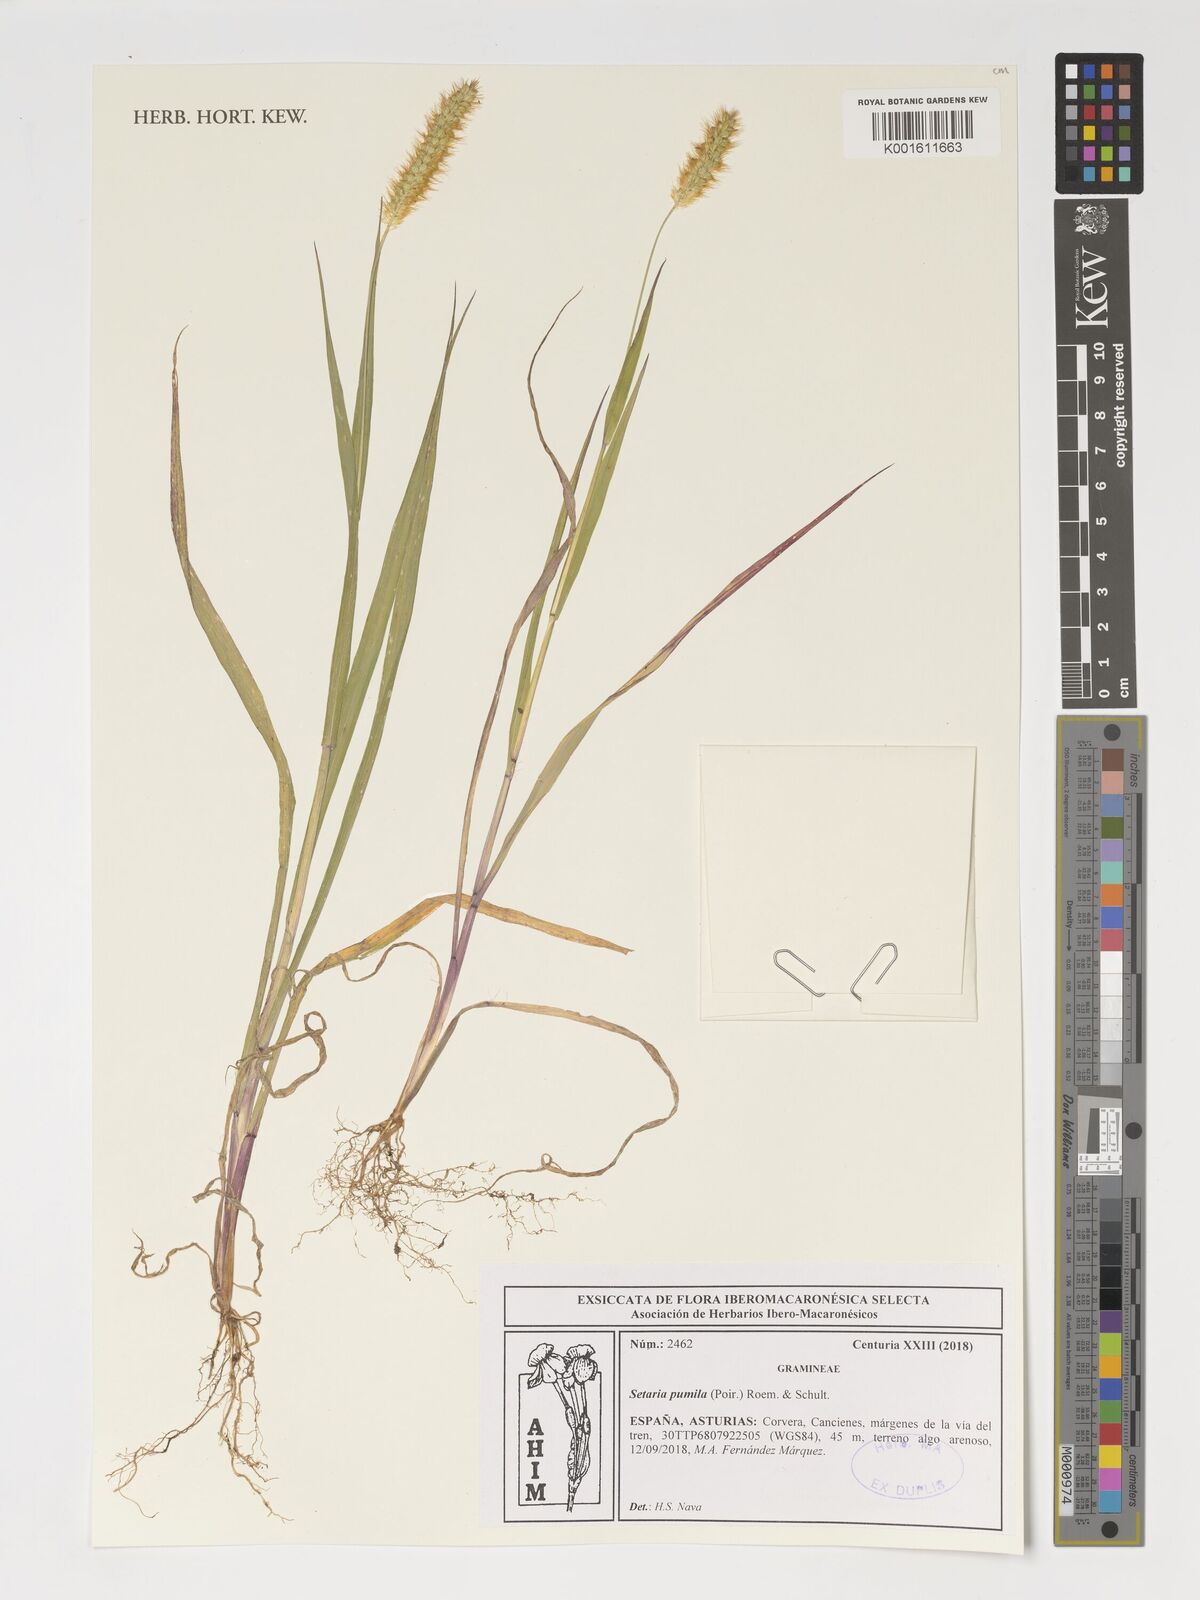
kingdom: Plantae
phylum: Tracheophyta
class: Liliopsida
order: Poales
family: Poaceae
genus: Setaria
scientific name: Setaria pumila
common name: Yellow bristle-grass
